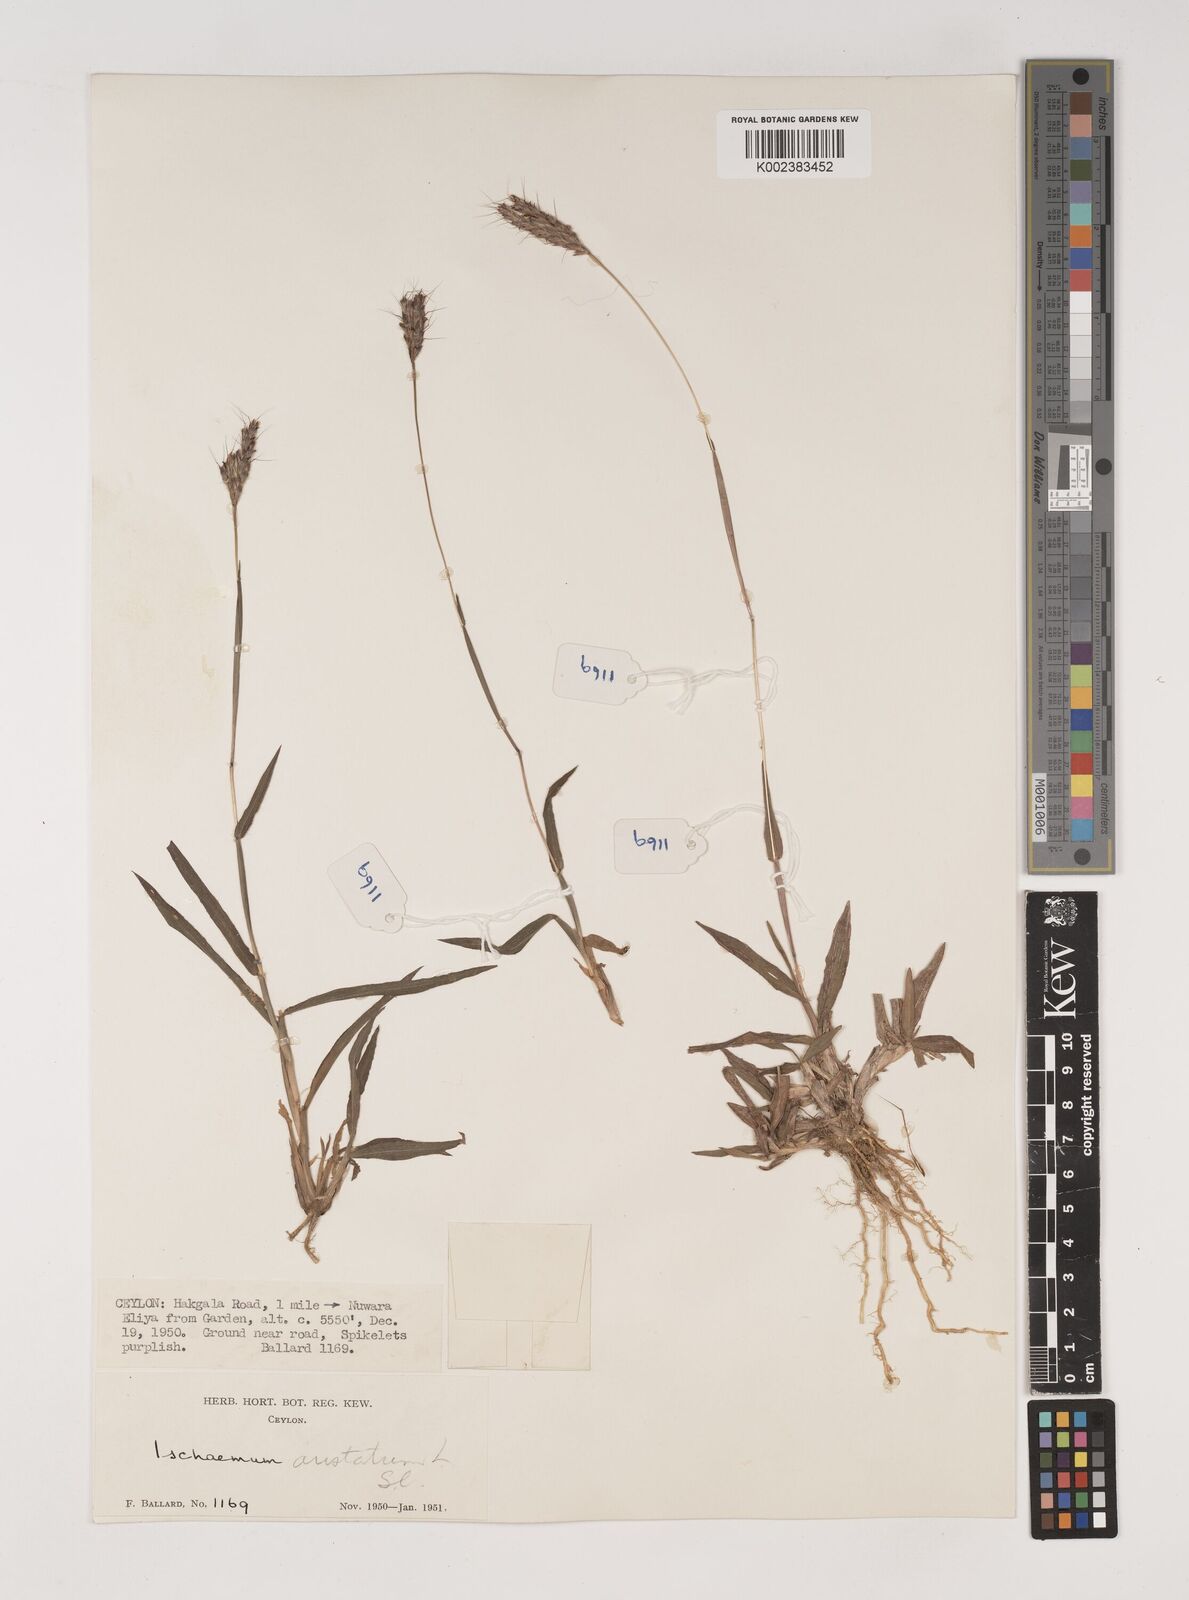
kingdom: Plantae
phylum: Tracheophyta
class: Liliopsida
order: Poales
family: Poaceae
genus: Polytrias
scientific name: Polytrias indica
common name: Indian murainagrass
